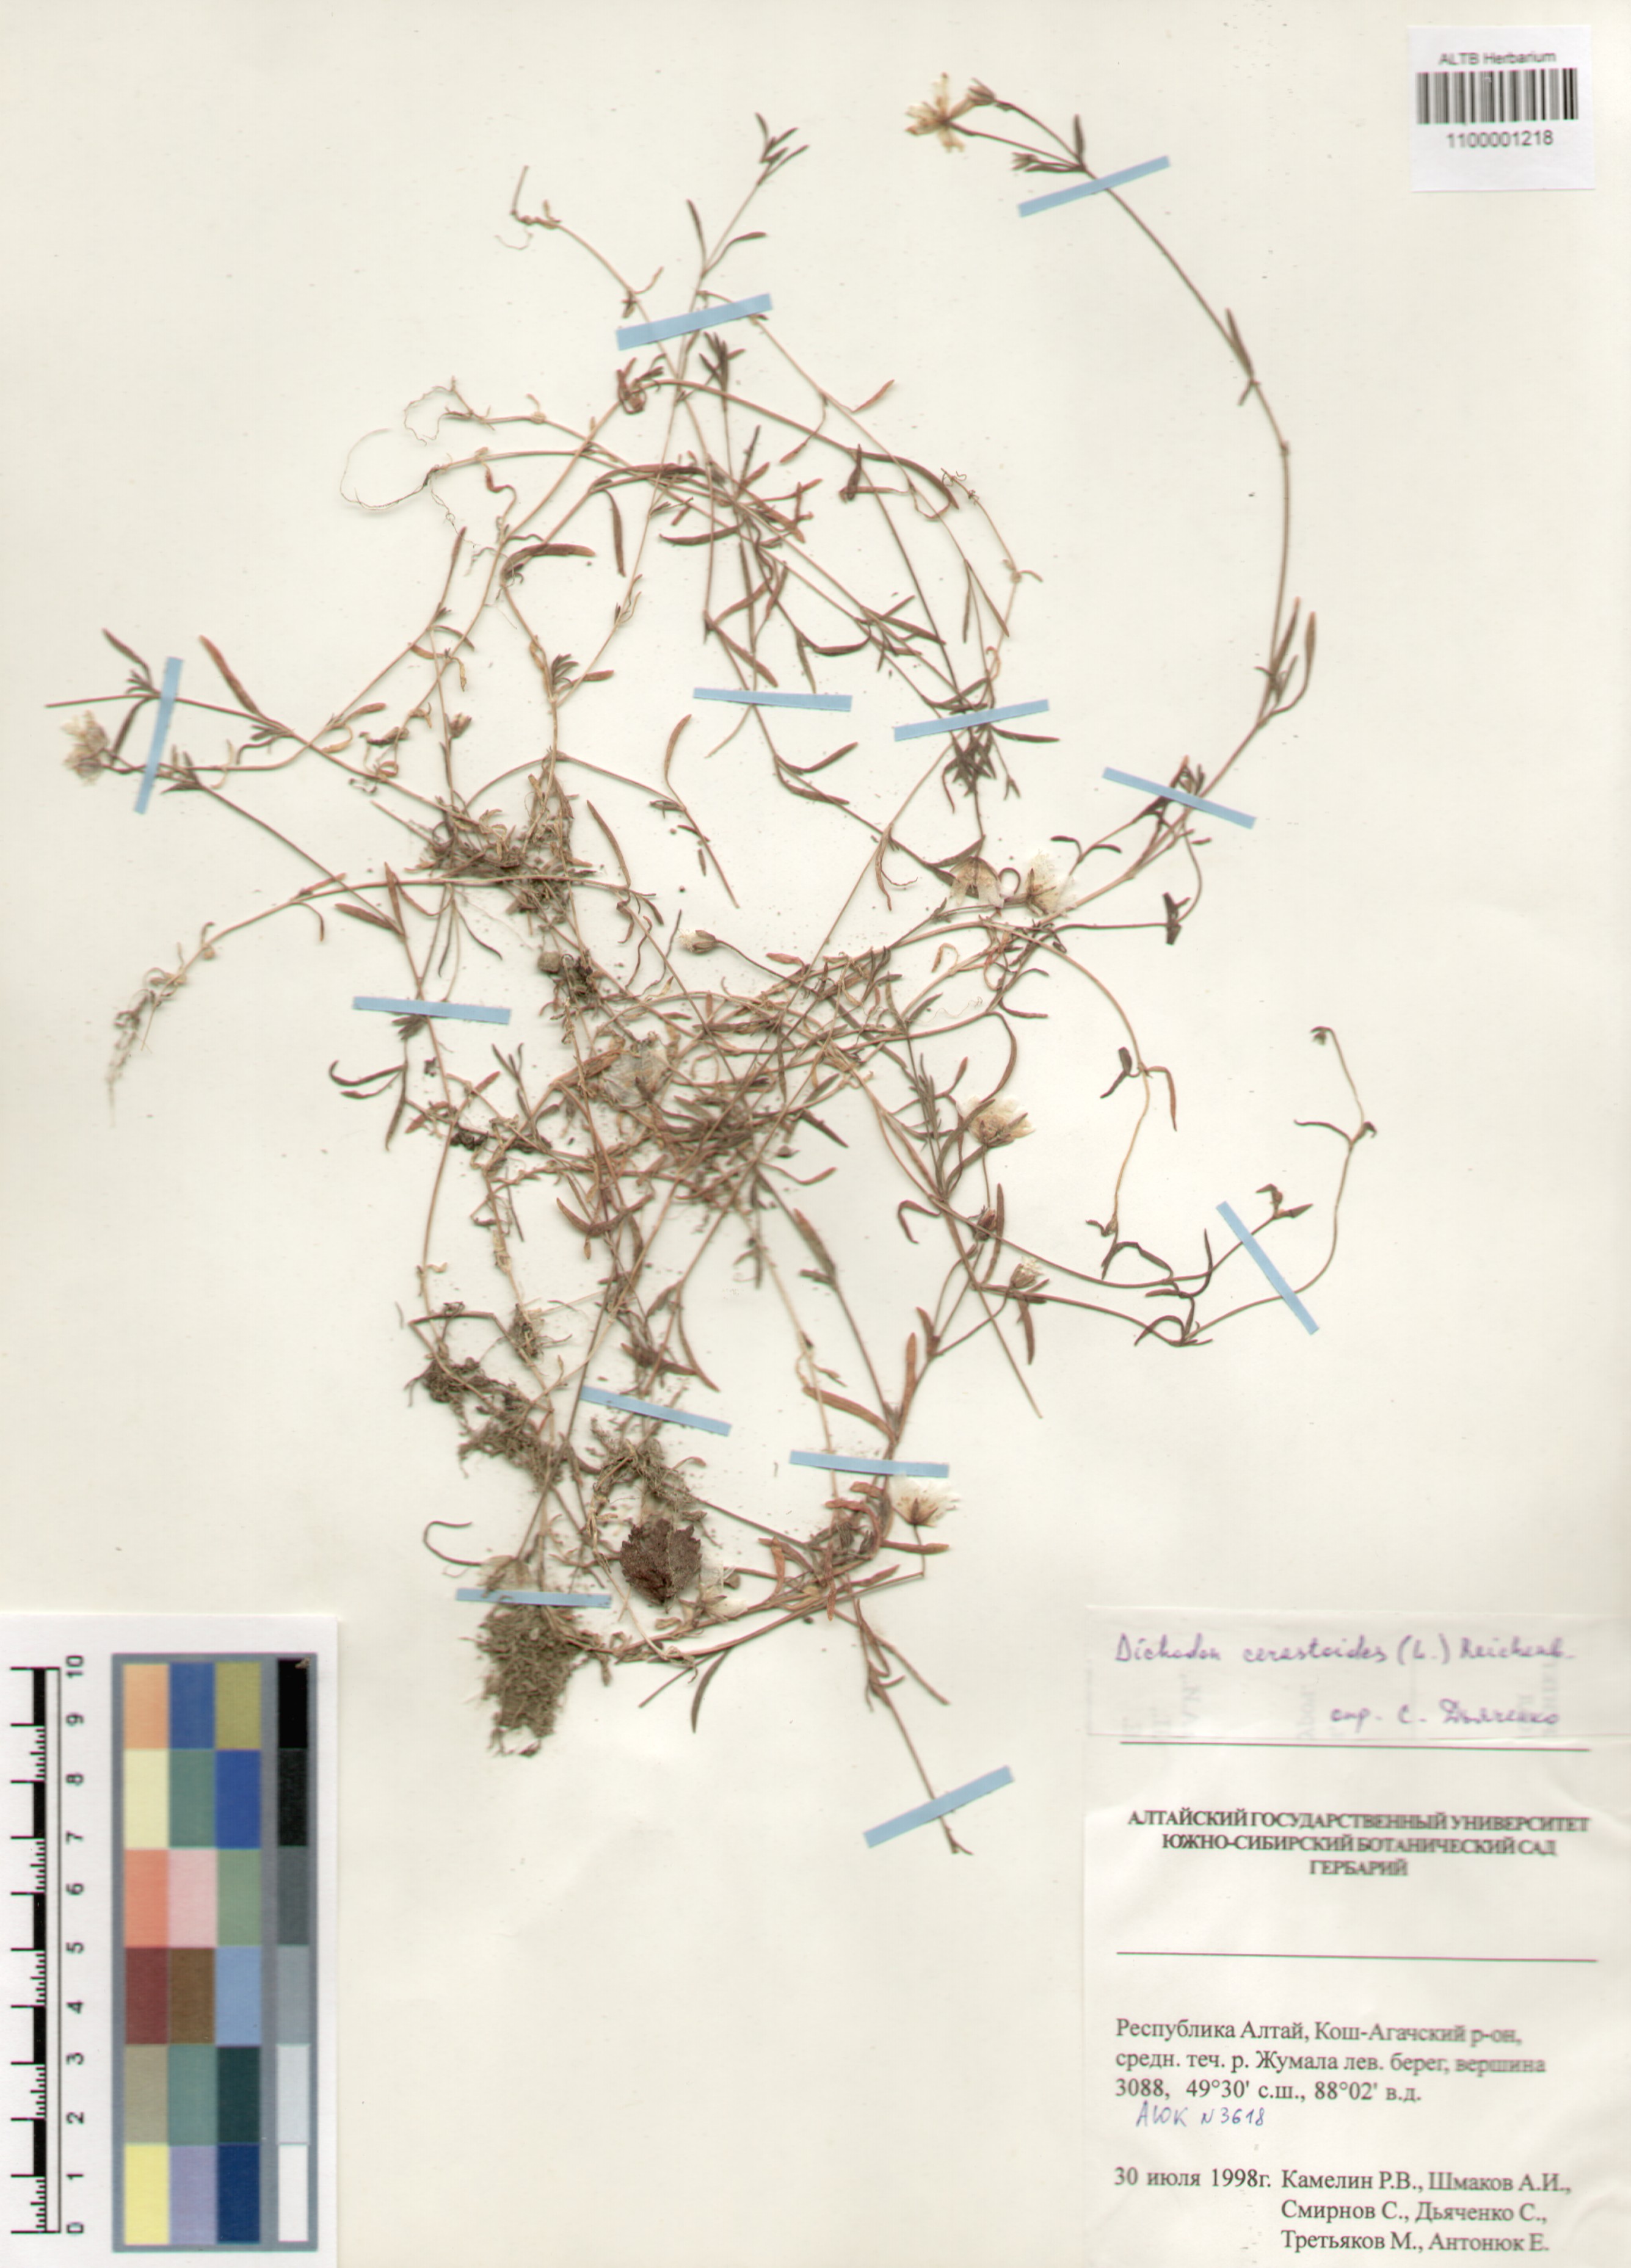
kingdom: Plantae
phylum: Tracheophyta
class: Magnoliopsida
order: Caryophyllales
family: Caryophyllaceae
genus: Dichodon
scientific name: Dichodon cerastoides
